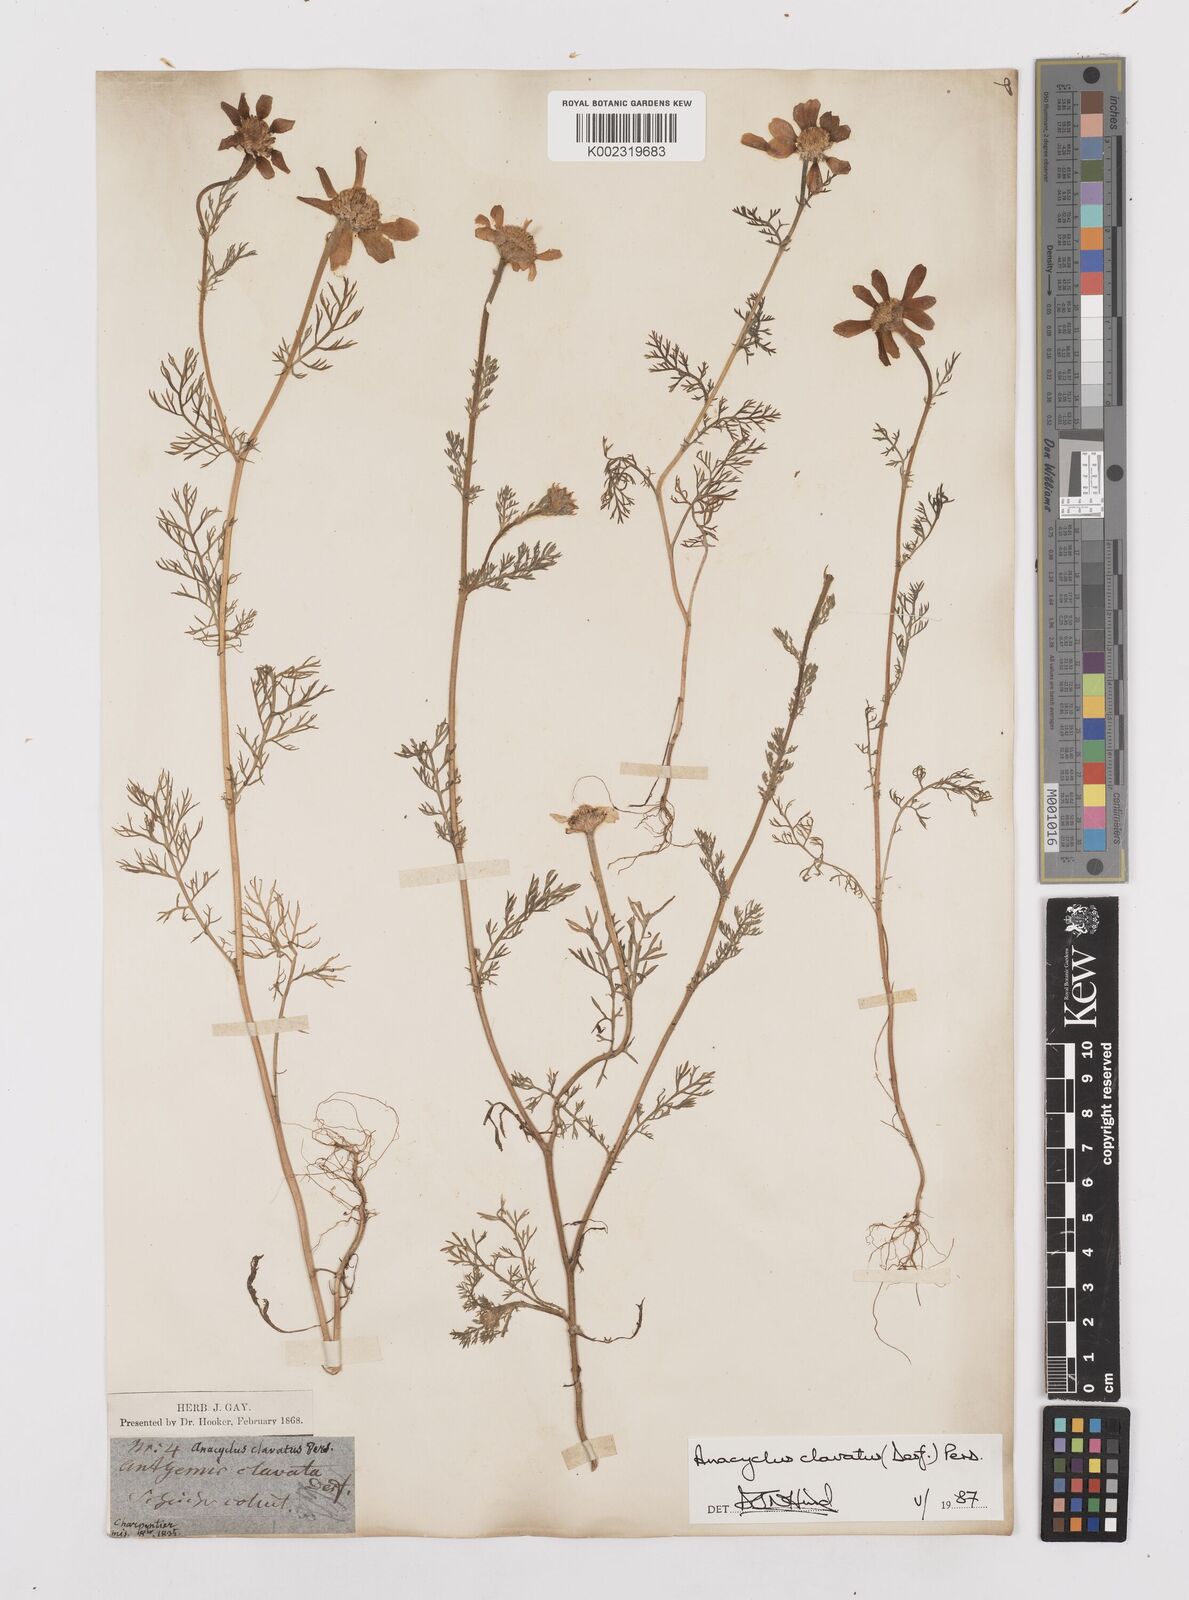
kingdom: Plantae
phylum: Tracheophyta
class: Magnoliopsida
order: Asterales
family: Asteraceae
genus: Anacyclus
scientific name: Anacyclus clavatus
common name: Whitebuttons
